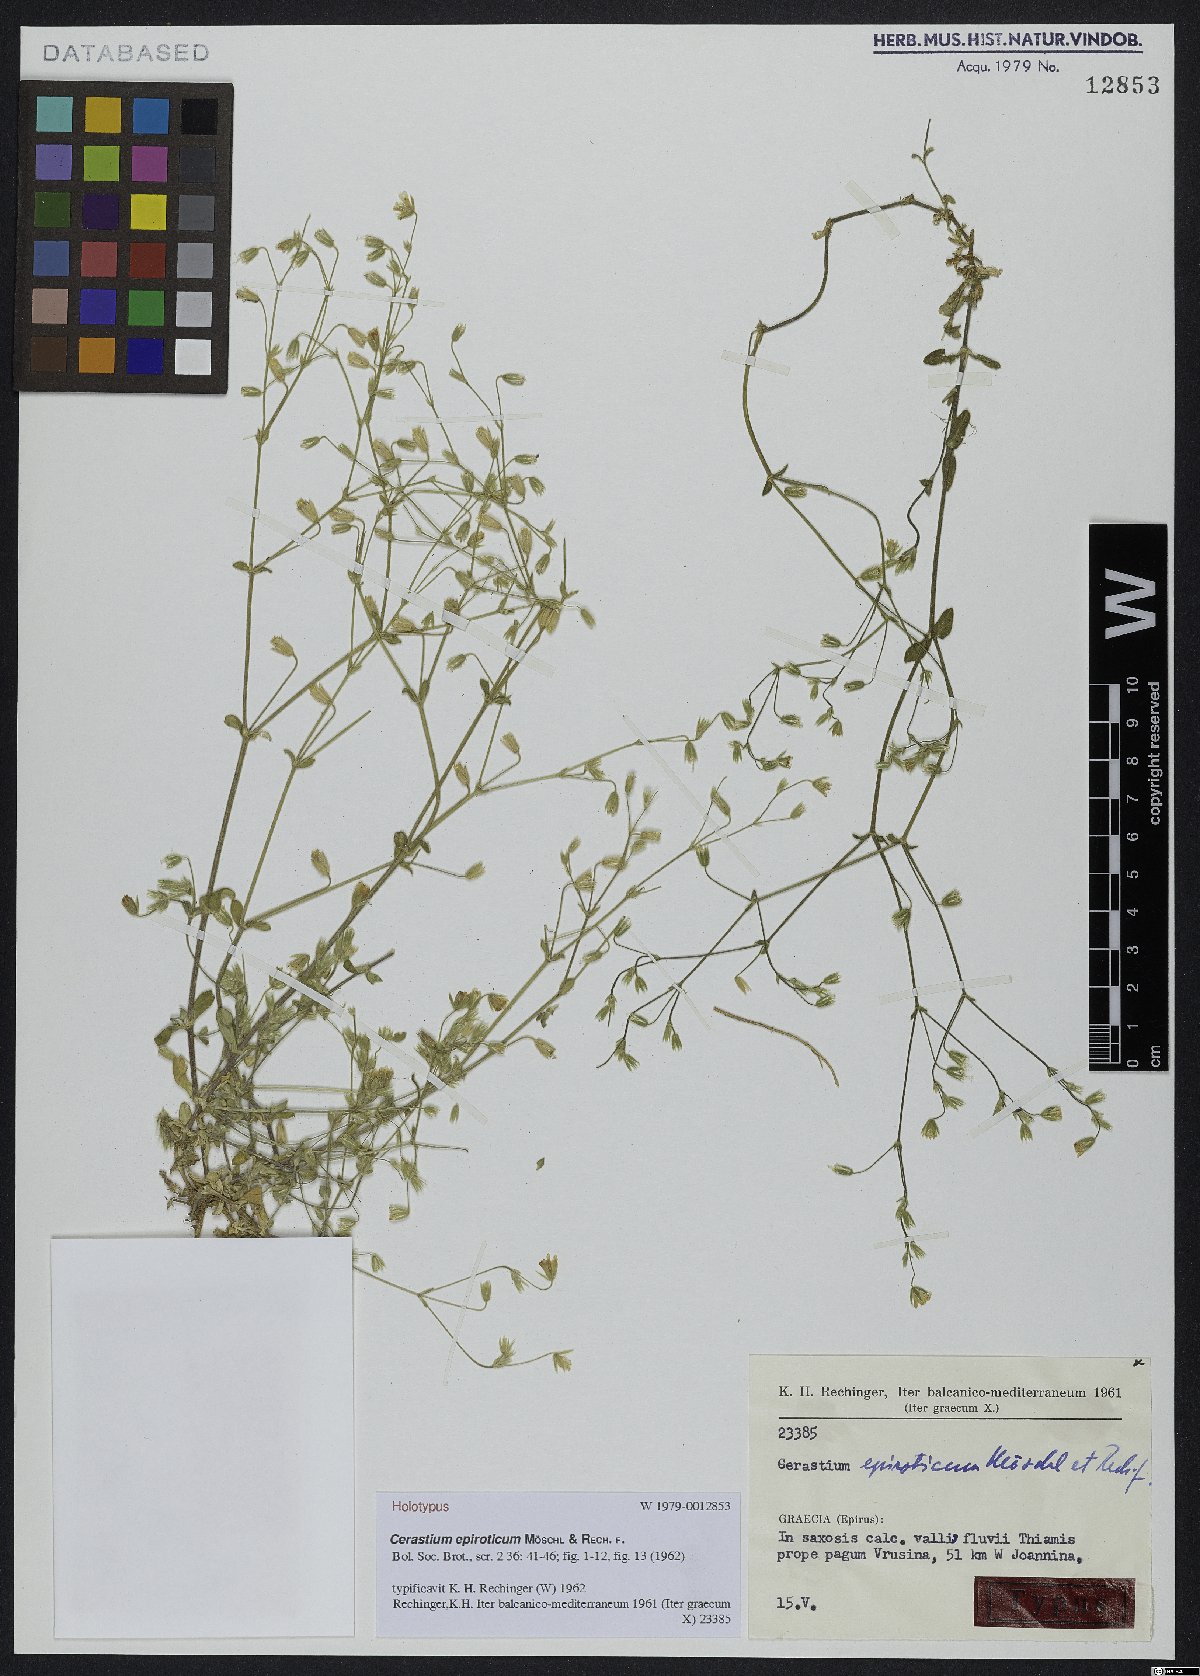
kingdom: Plantae
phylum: Tracheophyta
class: Magnoliopsida
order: Caryophyllales
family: Caryophyllaceae
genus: Cerastium
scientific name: Cerastium tenoreanum
